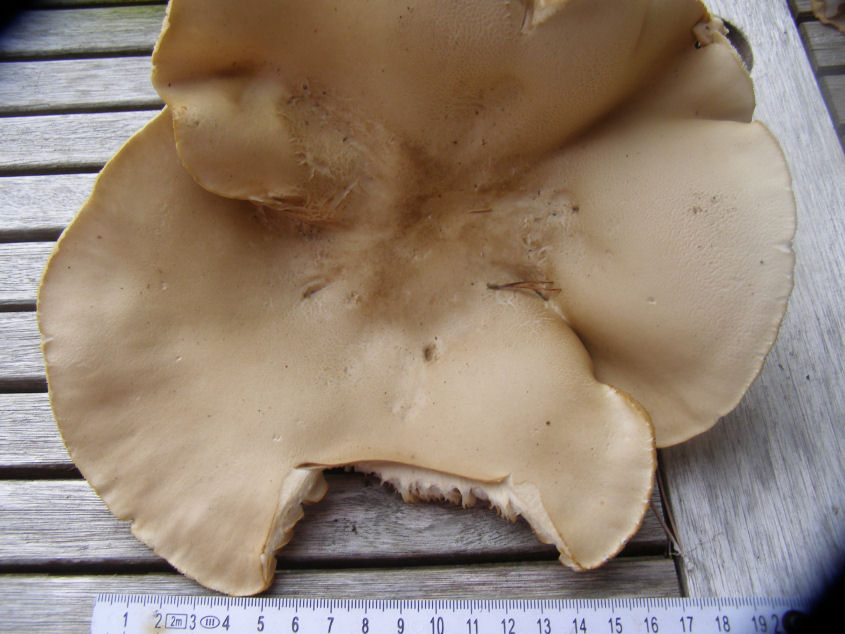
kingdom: Fungi
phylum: Basidiomycota
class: Agaricomycetes
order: Agaricales
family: Tricholomataceae
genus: Melanoleuca
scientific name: Melanoleuca
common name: munkehat
